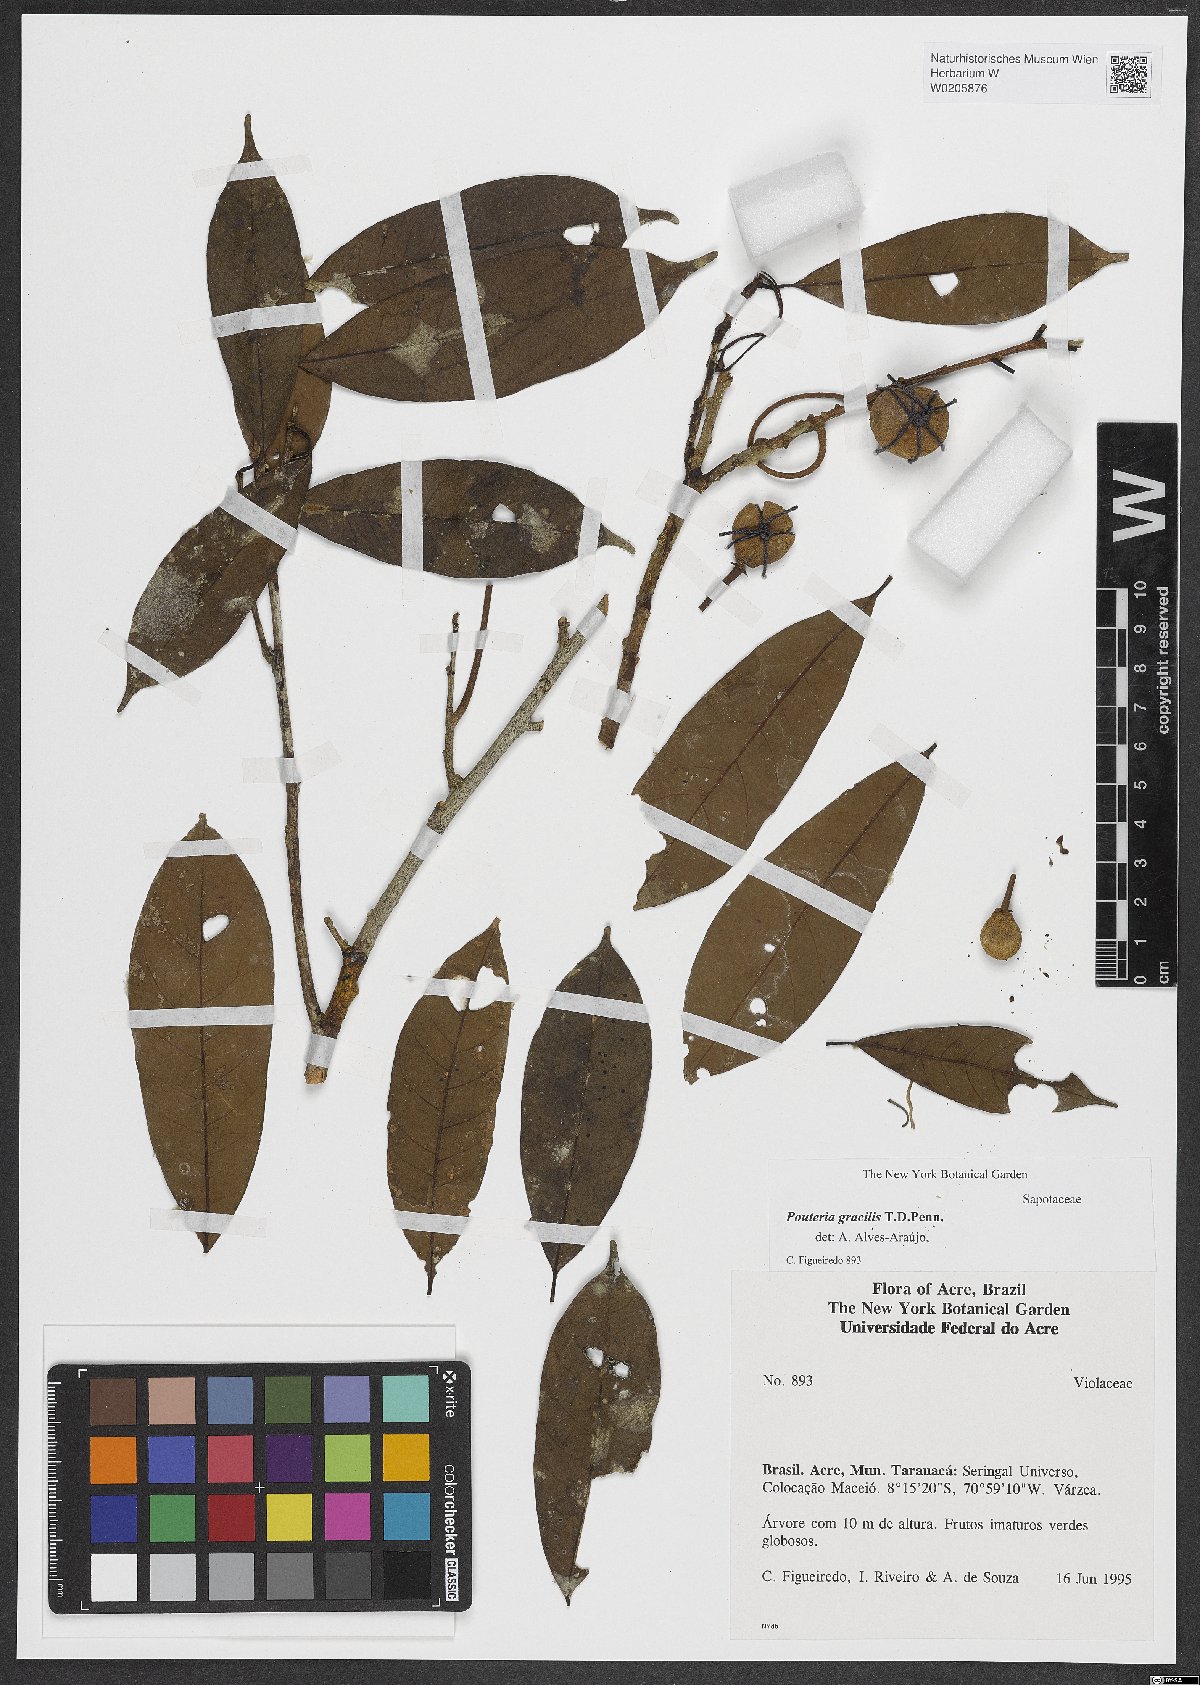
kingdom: Plantae
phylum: Tracheophyta
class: Magnoliopsida
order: Ericales
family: Sapotaceae
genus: Pouteria
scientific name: Pouteria gracilis
